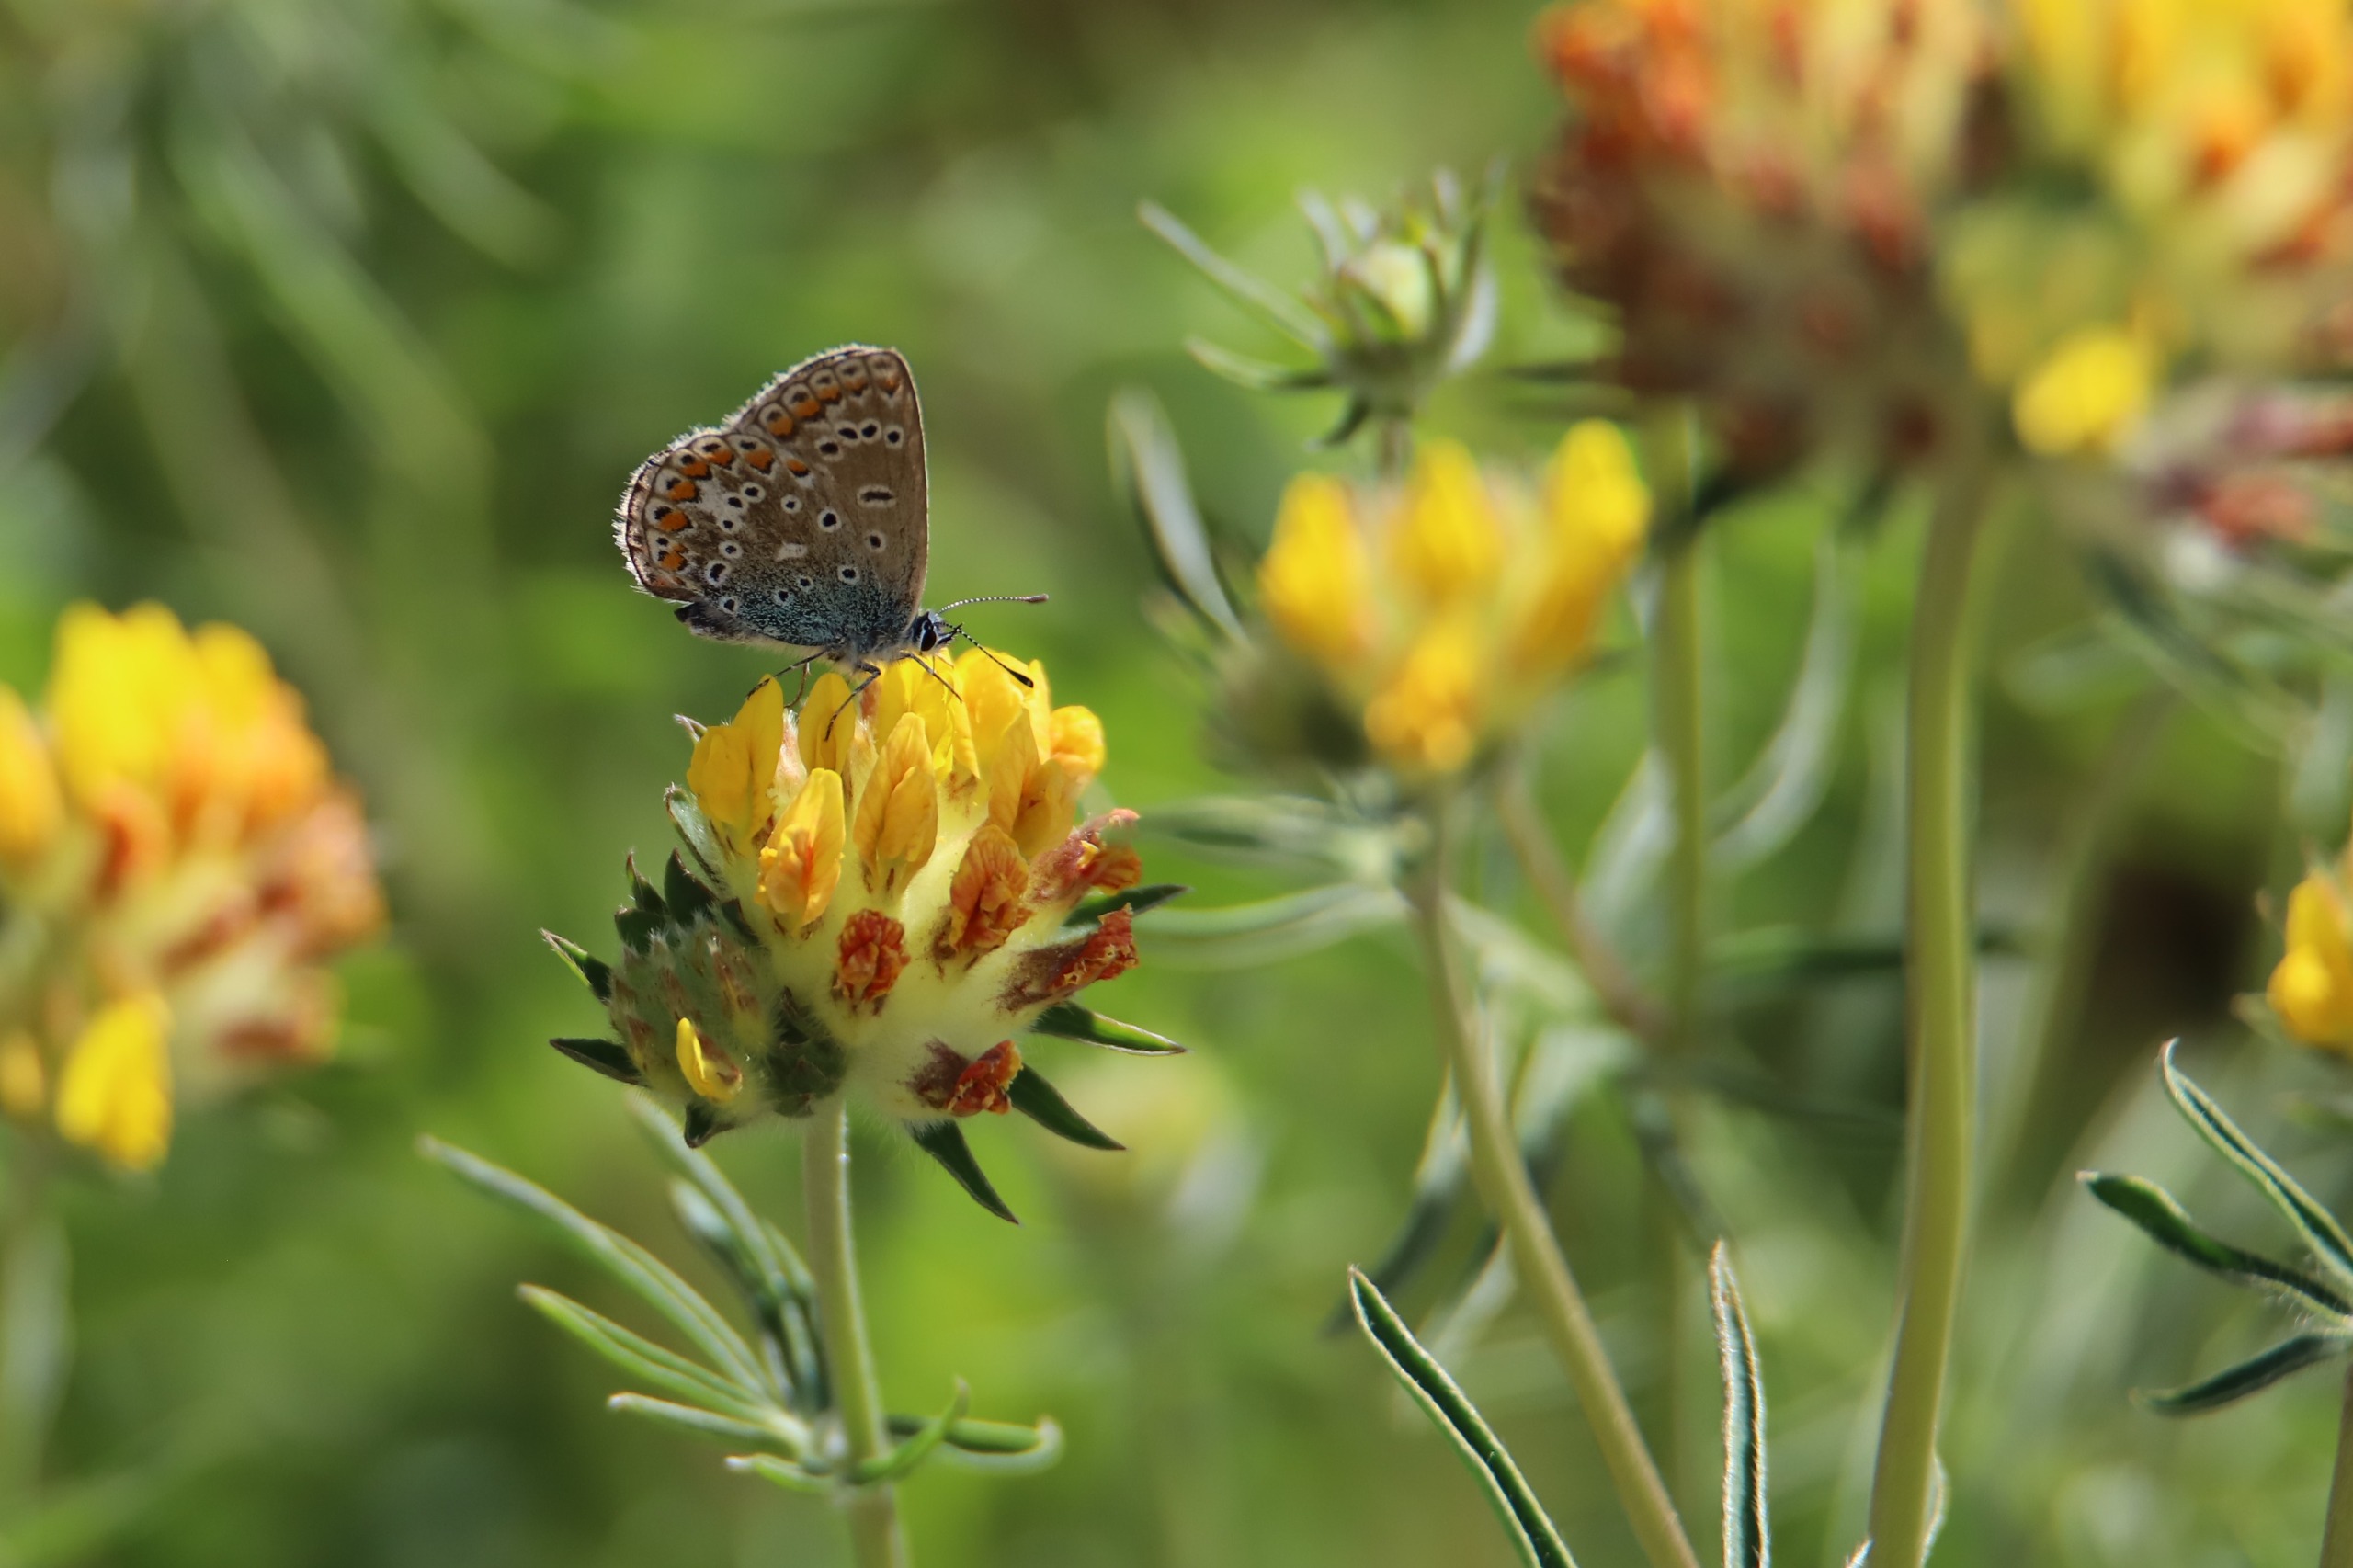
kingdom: Animalia
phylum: Arthropoda
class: Insecta
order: Lepidoptera
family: Lycaenidae
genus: Polyommatus
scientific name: Polyommatus icarus
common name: Almindelig blåfugl
